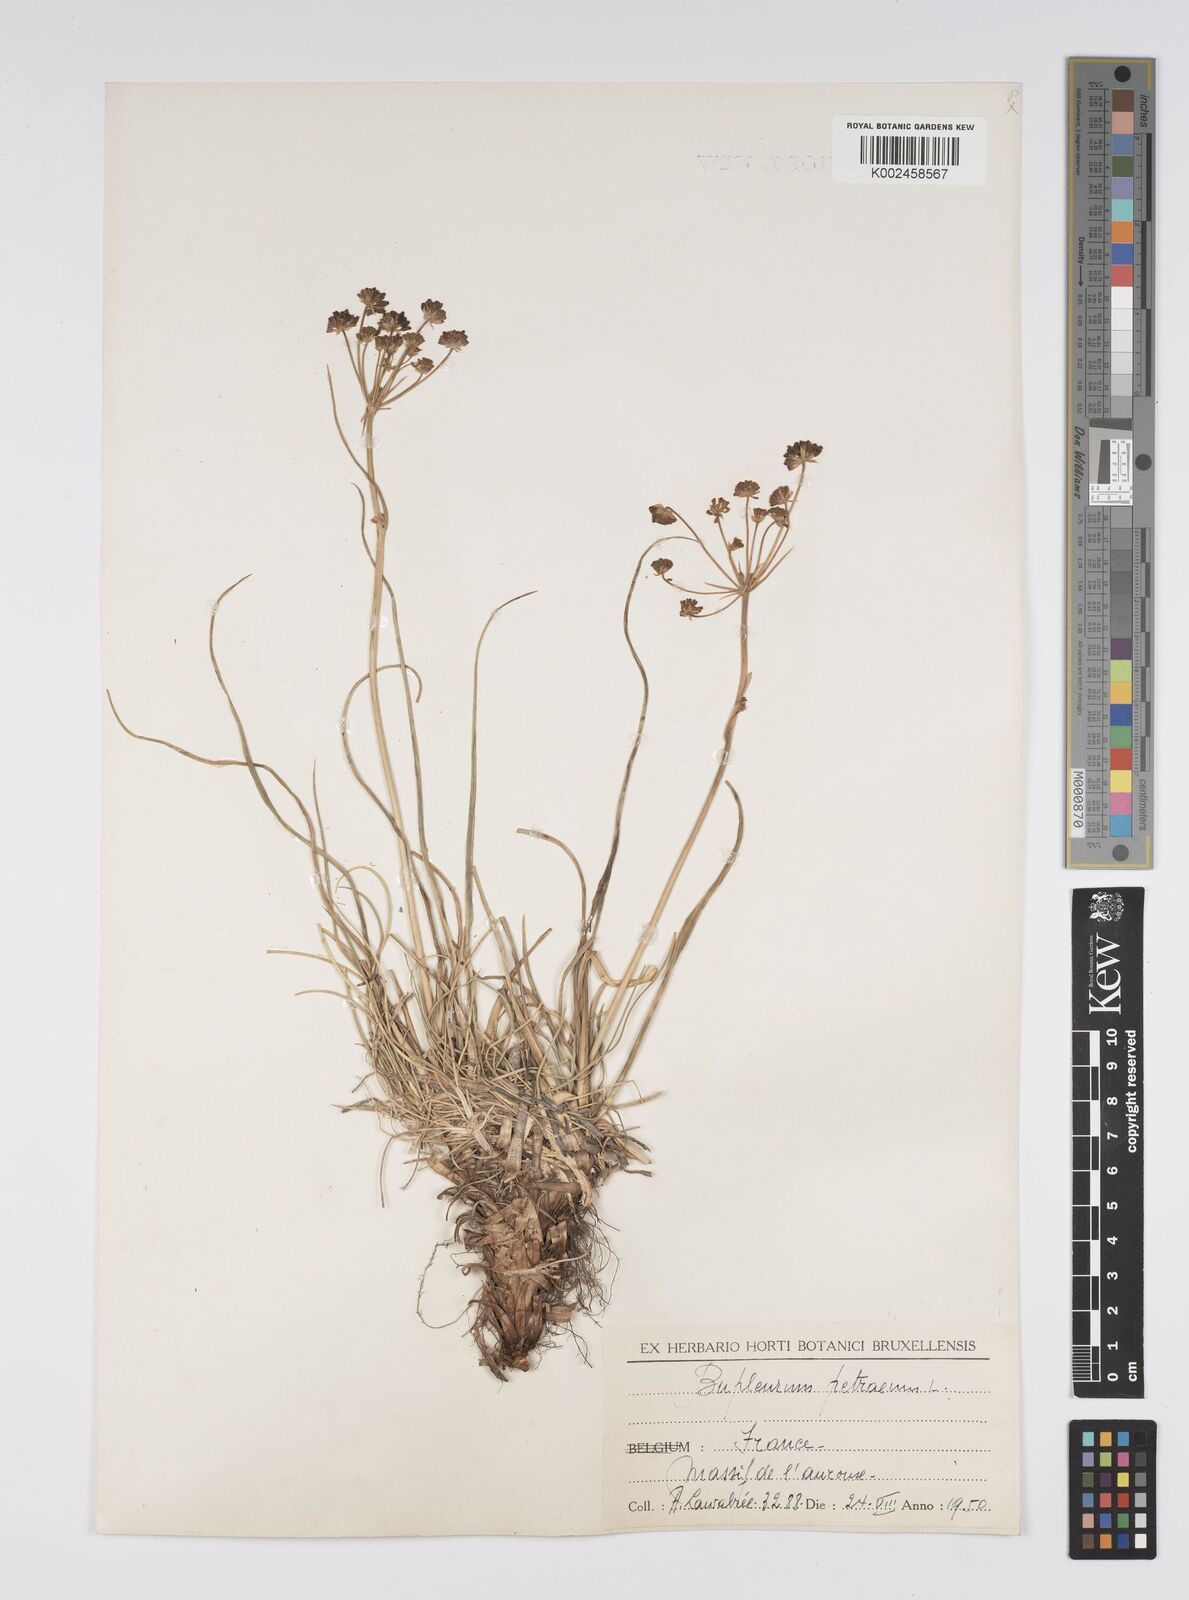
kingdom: Plantae
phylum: Tracheophyta
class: Magnoliopsida
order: Apiales
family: Apiaceae
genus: Bupleurum
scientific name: Bupleurum petraeum
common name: Rock hare's-ear
